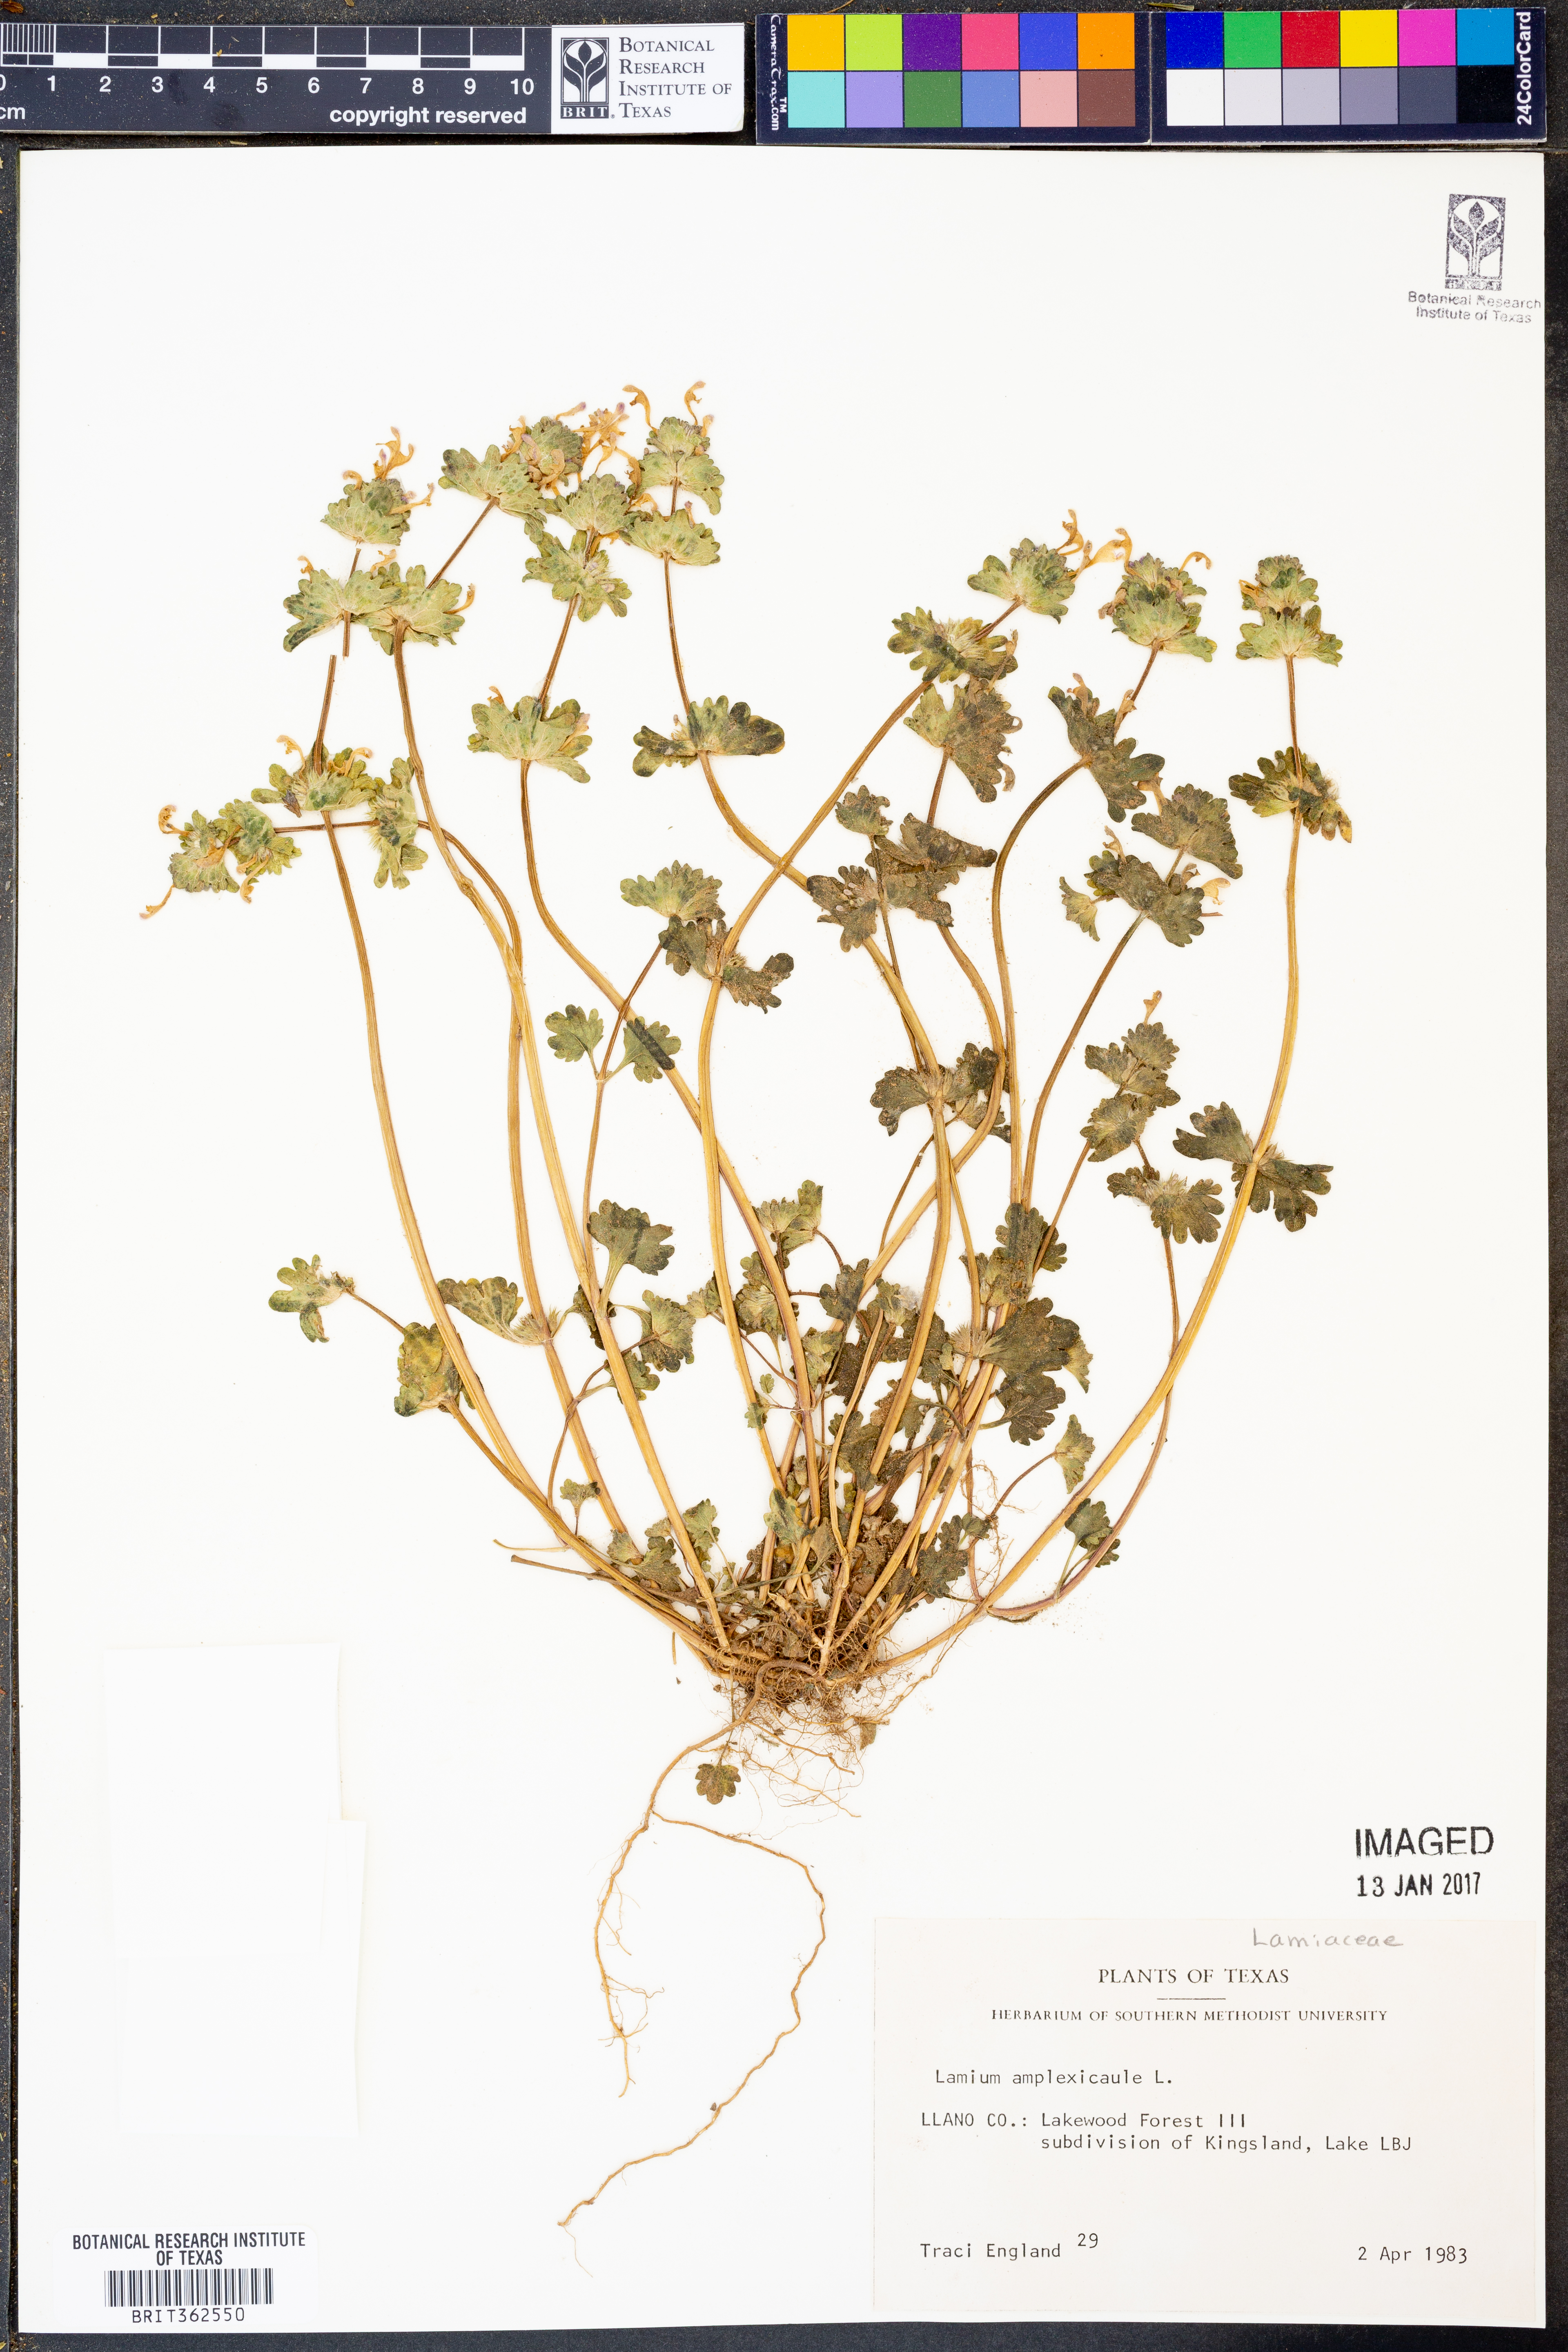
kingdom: Plantae
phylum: Tracheophyta
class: Magnoliopsida
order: Lamiales
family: Lamiaceae
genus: Lamium
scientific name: Lamium amplexicaule
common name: Henbit dead-nettle
